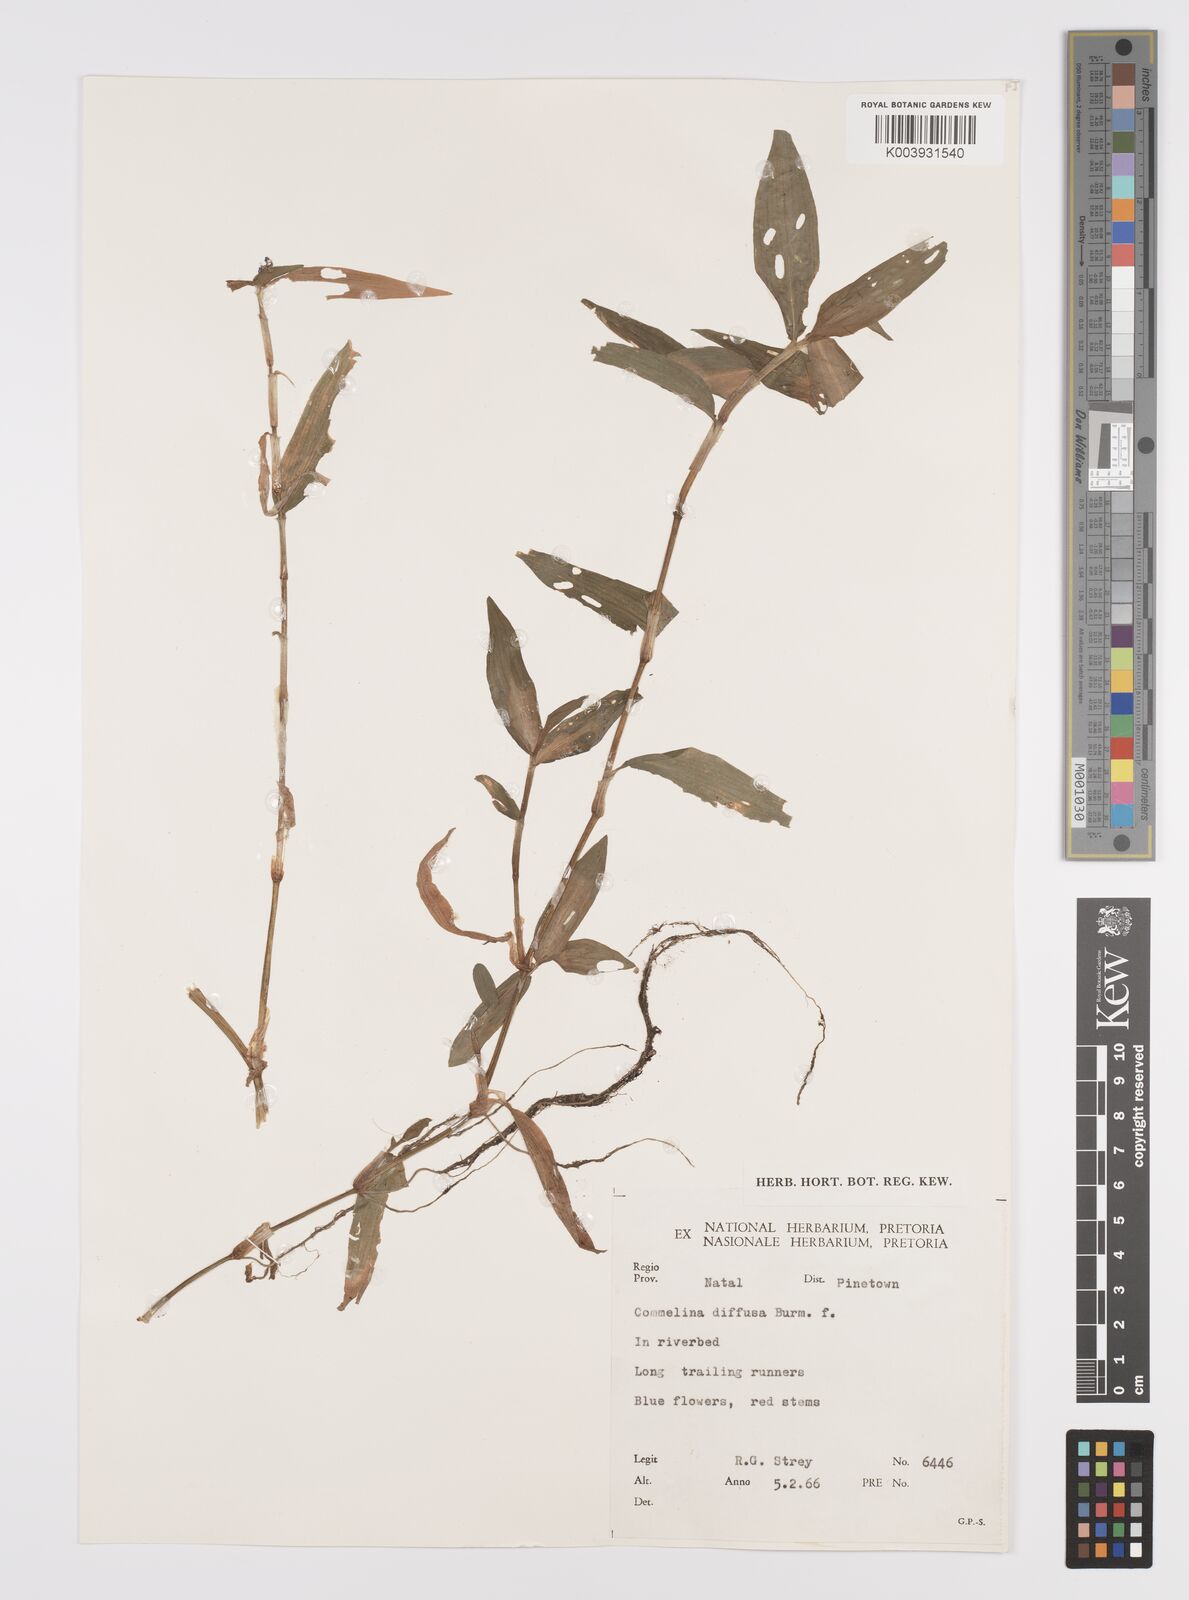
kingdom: Plantae
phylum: Tracheophyta
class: Liliopsida
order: Commelinales
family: Commelinaceae
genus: Commelina
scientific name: Commelina diffusa
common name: Climbing dayflower
